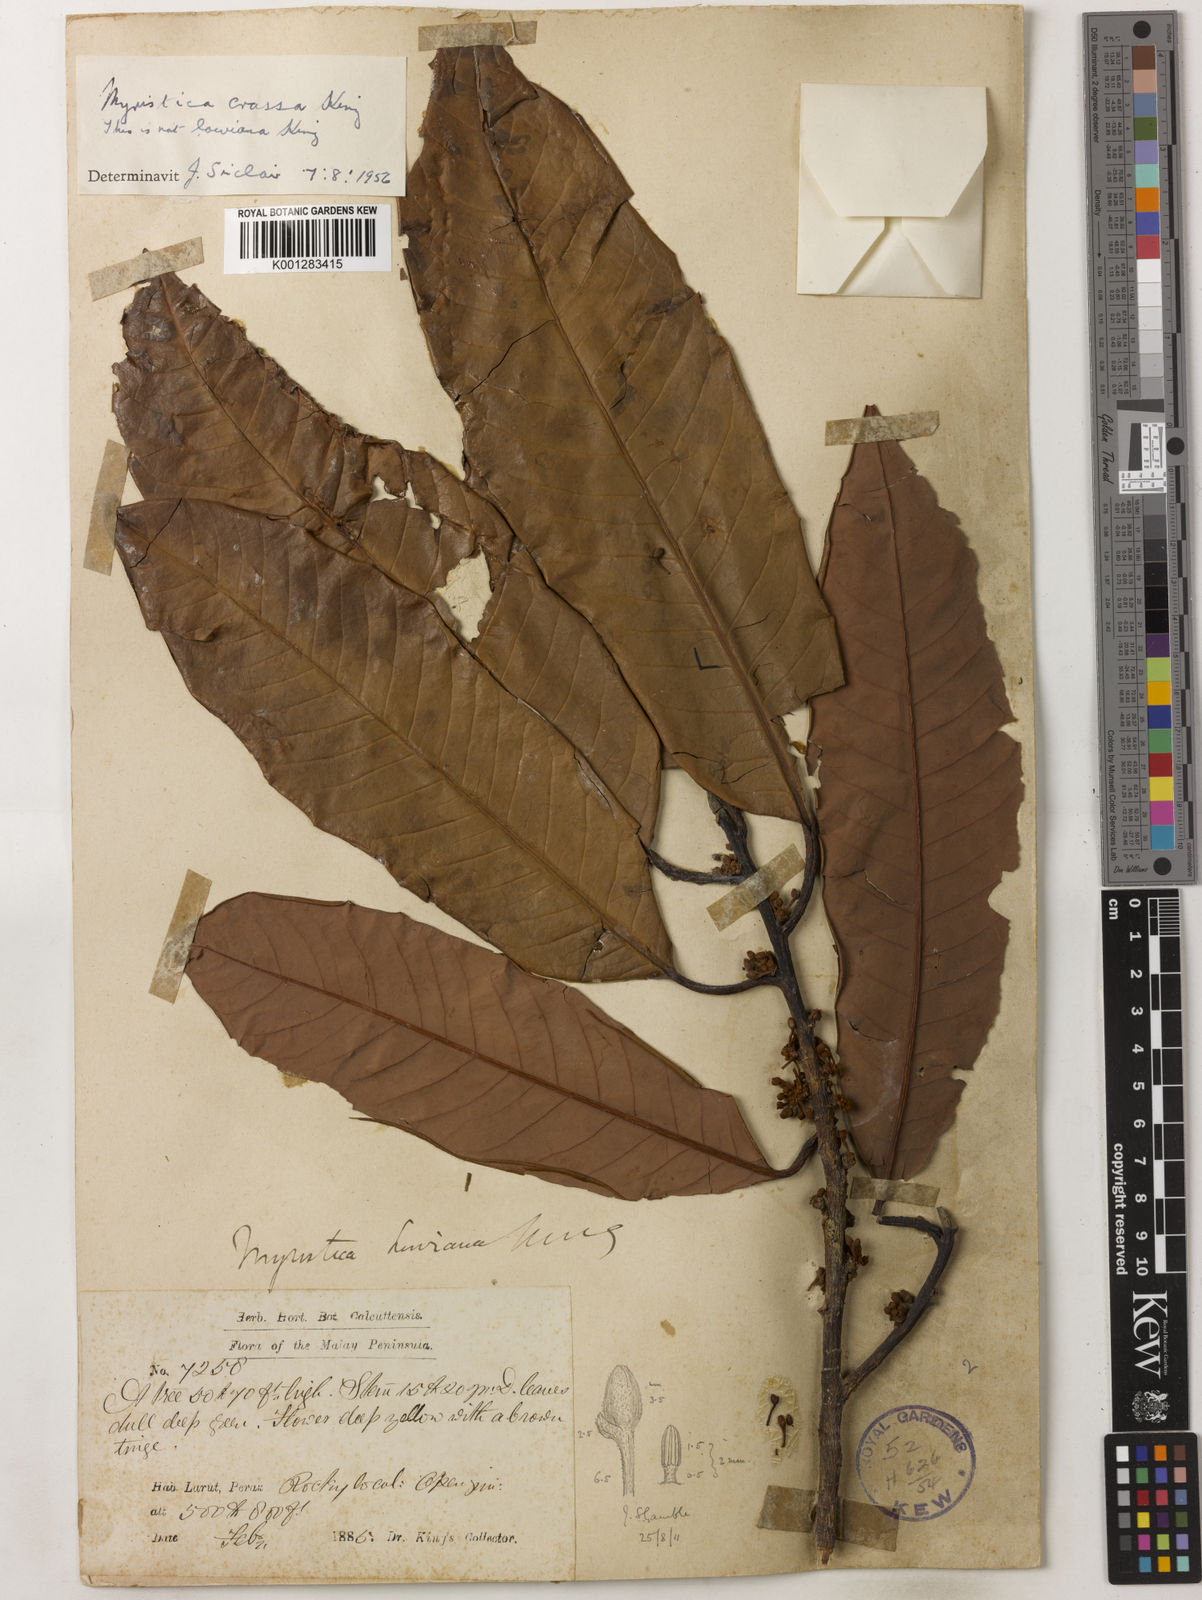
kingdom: Plantae
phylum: Tracheophyta
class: Magnoliopsida
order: Magnoliales
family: Myristicaceae
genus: Myristica
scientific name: Myristica crassa
